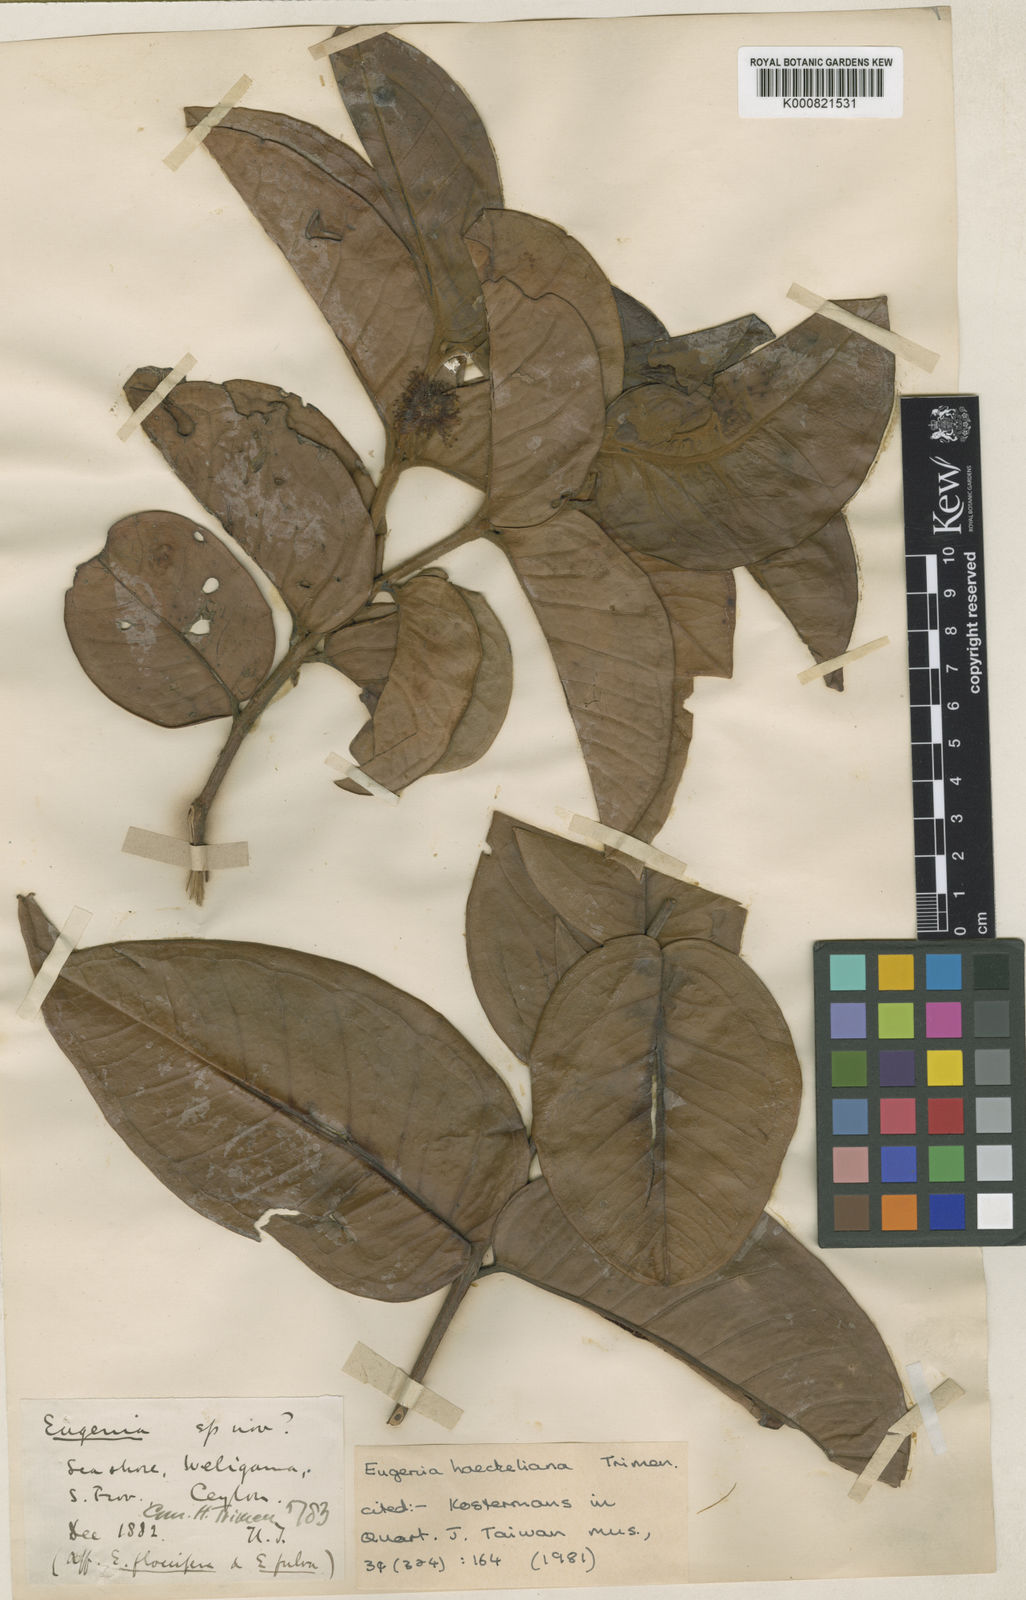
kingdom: Plantae
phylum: Tracheophyta
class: Magnoliopsida
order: Myrtales
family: Myrtaceae
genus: Eugenia
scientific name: Eugenia fulva
